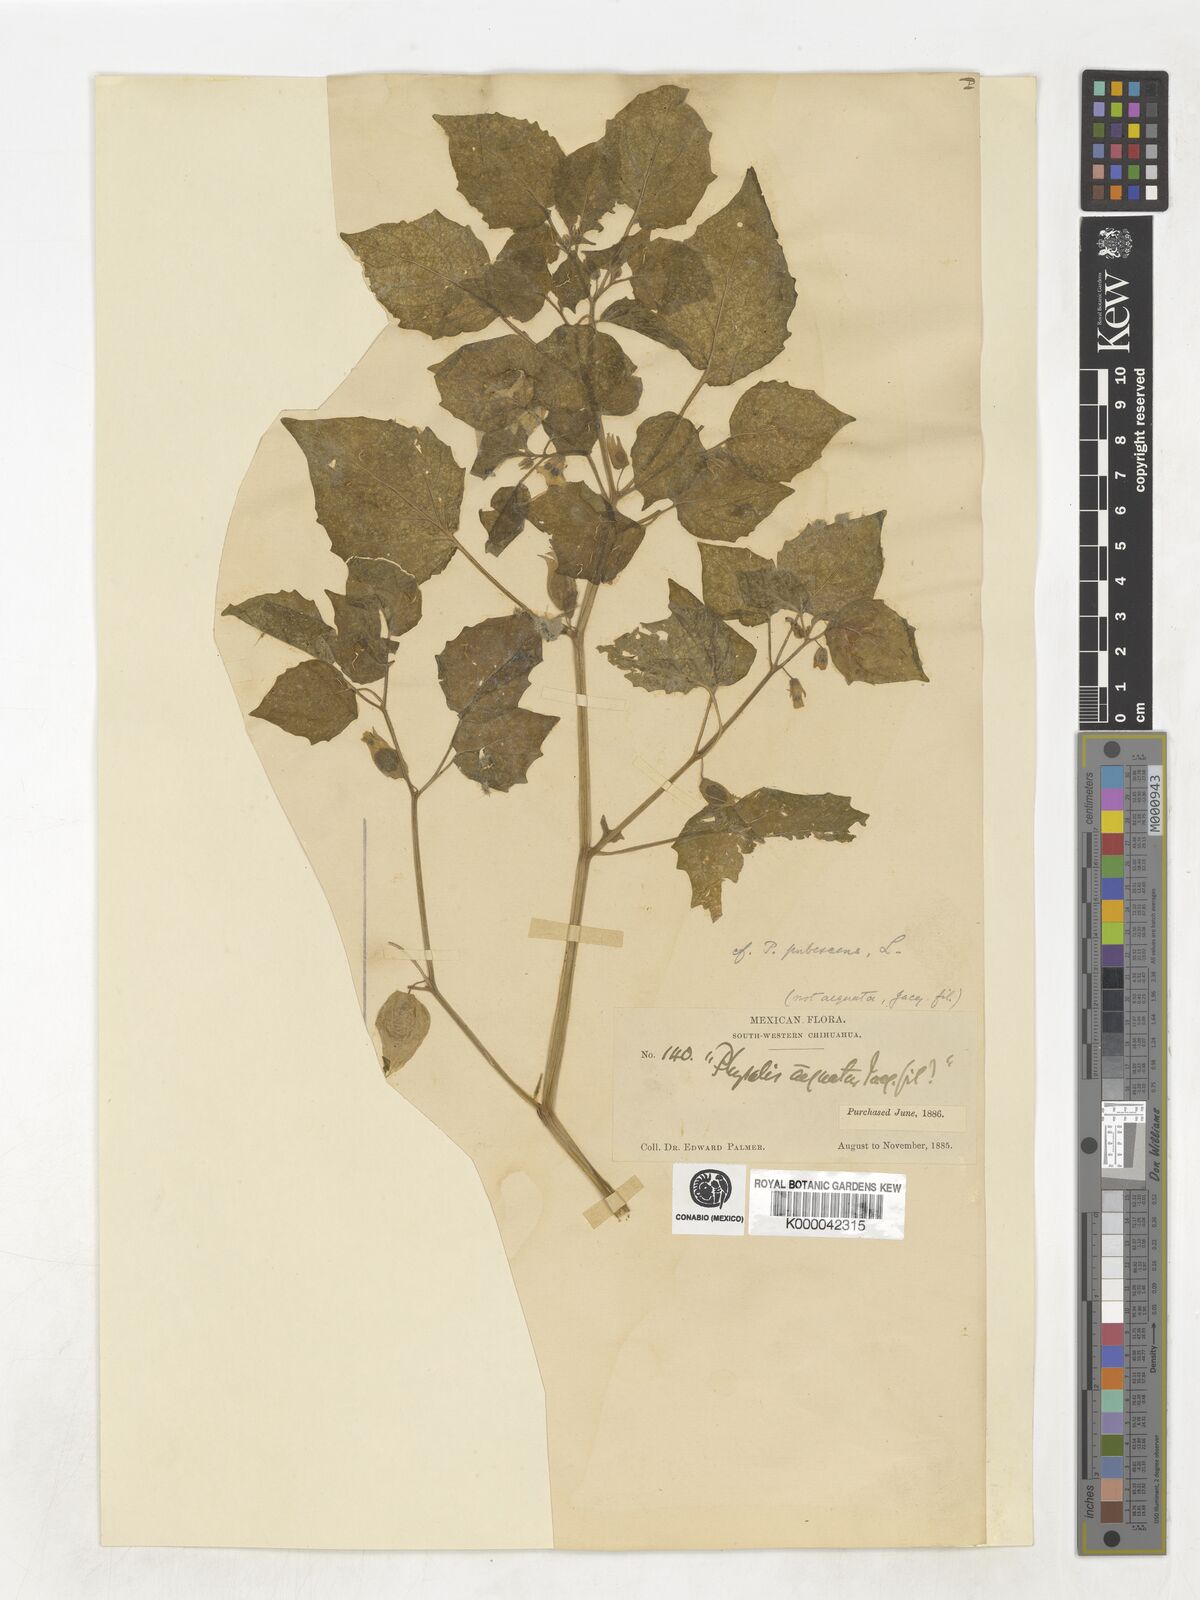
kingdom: Plantae
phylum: Tracheophyta
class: Magnoliopsida
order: Solanales
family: Solanaceae
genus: Physalis
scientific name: Physalis pubescens
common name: Downy ground-cherry
